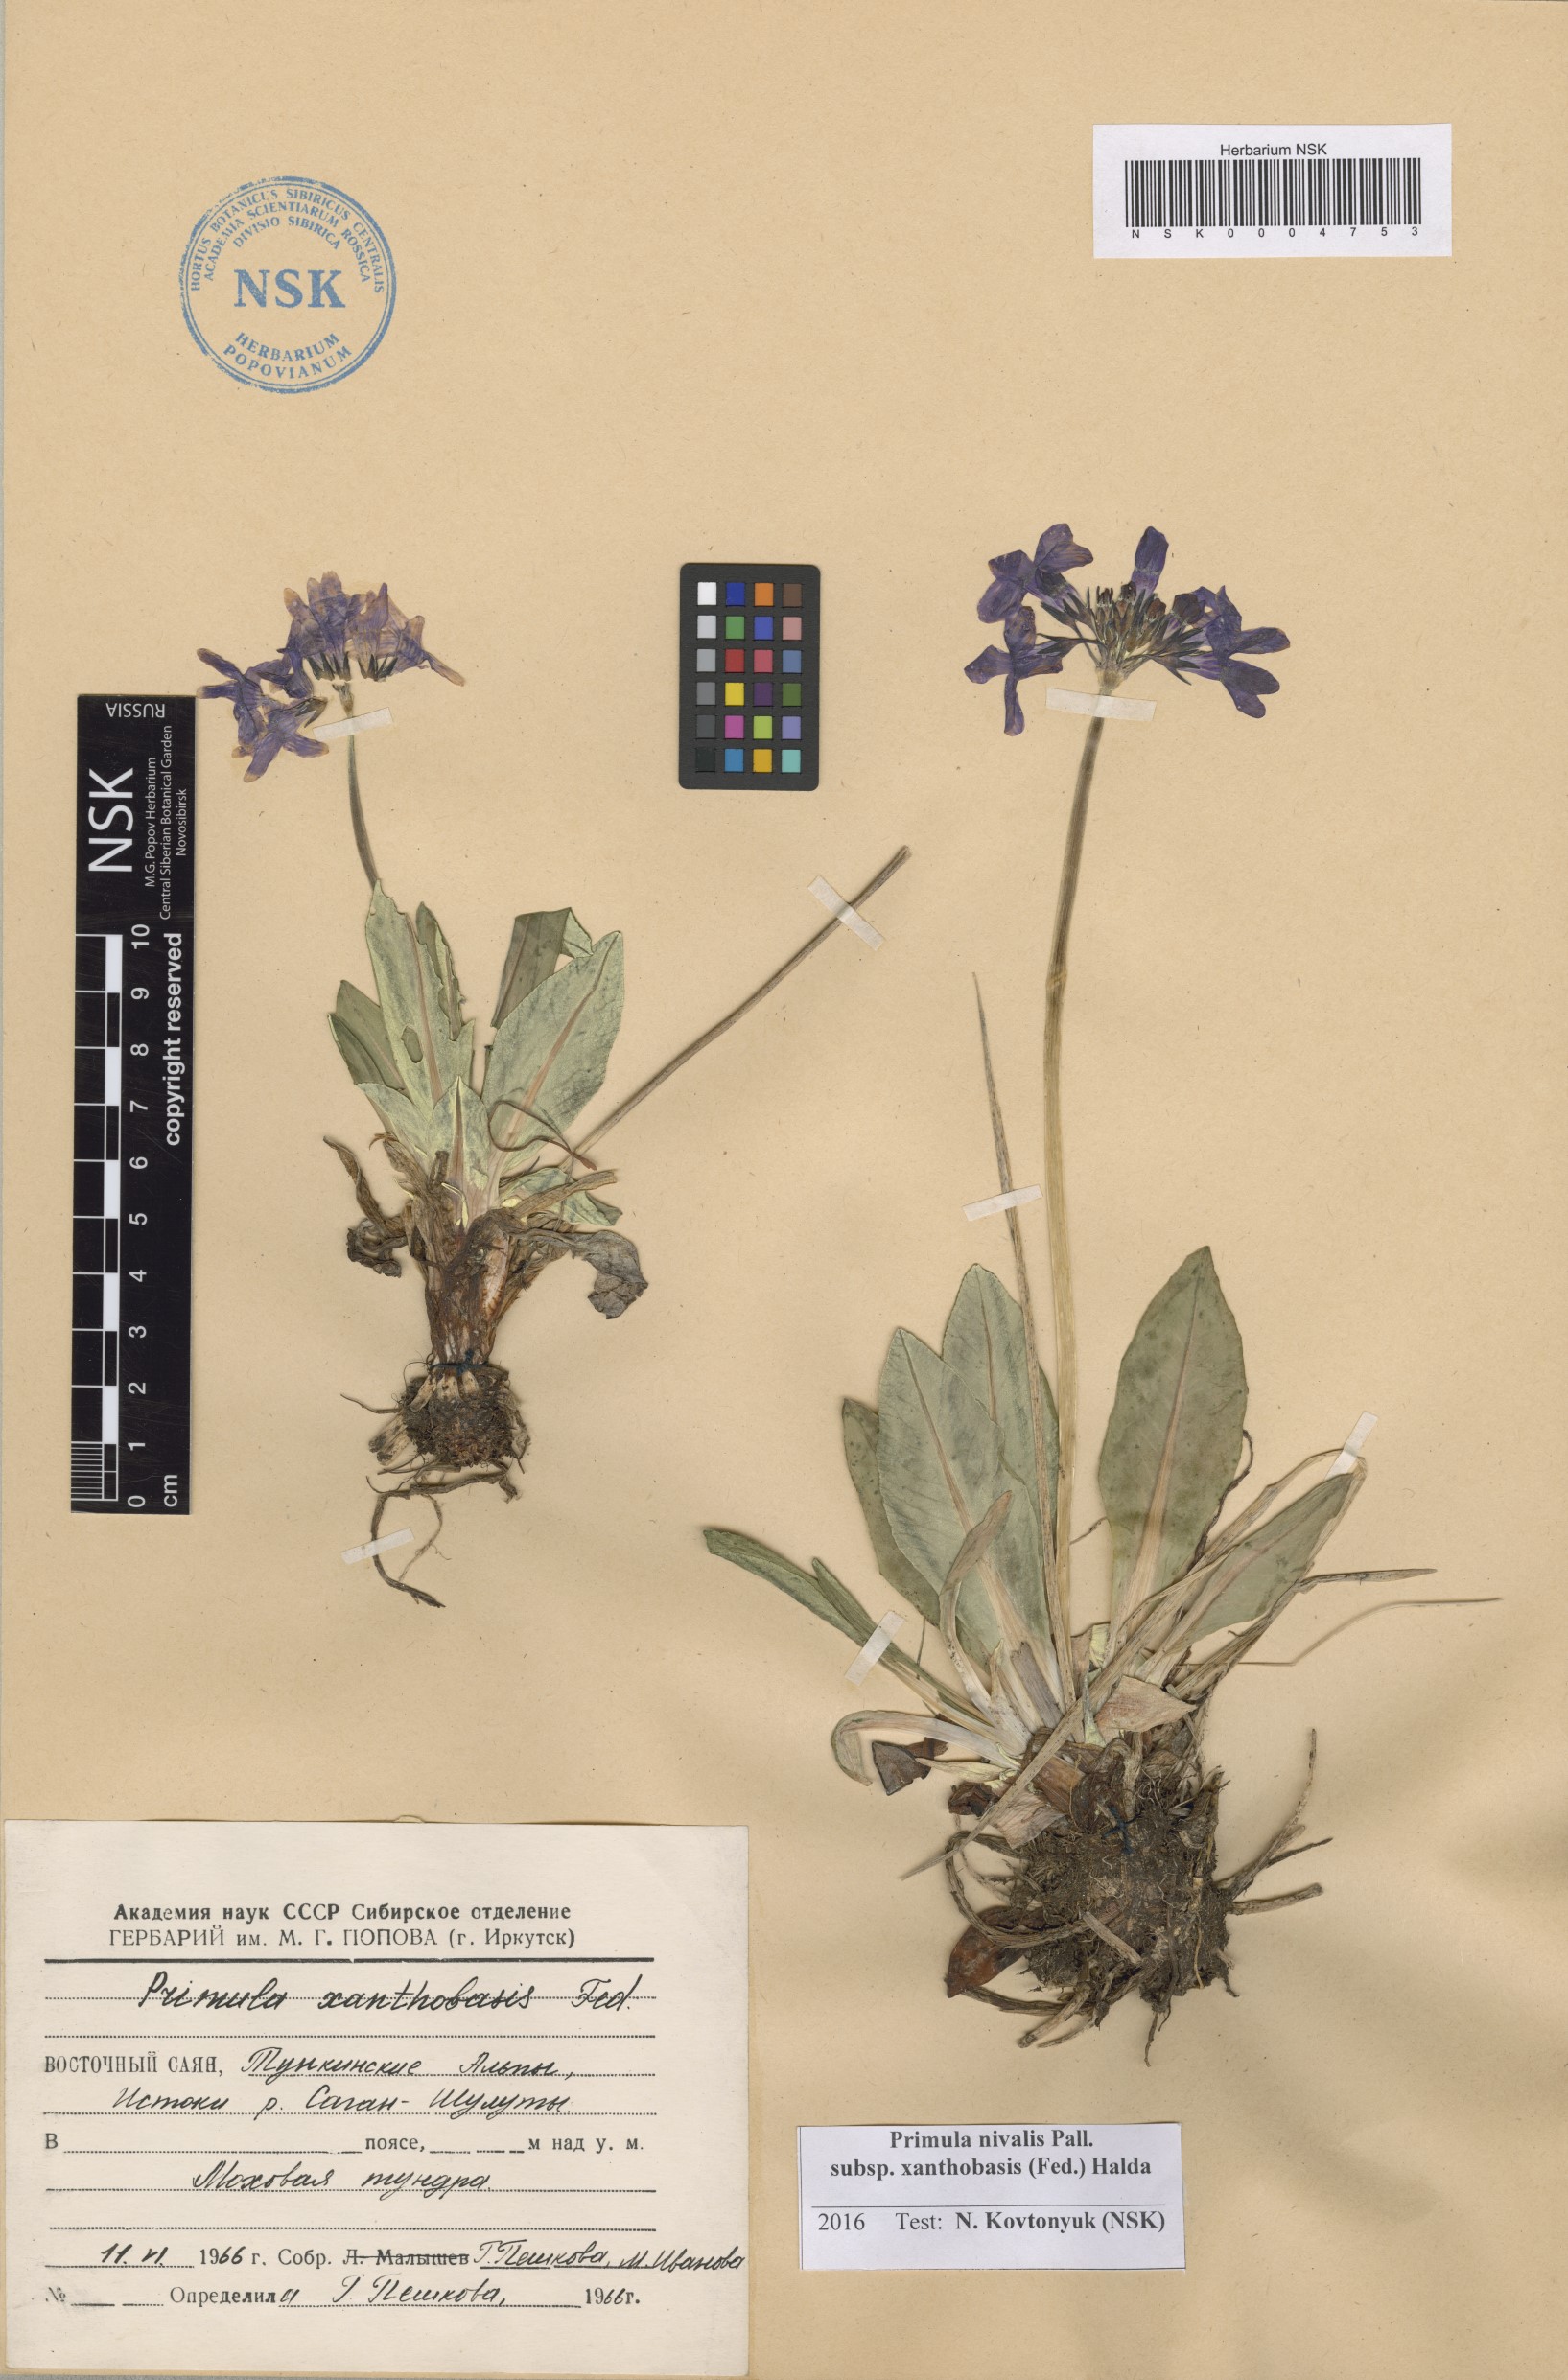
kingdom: Plantae
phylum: Tracheophyta
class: Magnoliopsida
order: Ericales
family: Primulaceae
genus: Primula
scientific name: Primula nivalis
